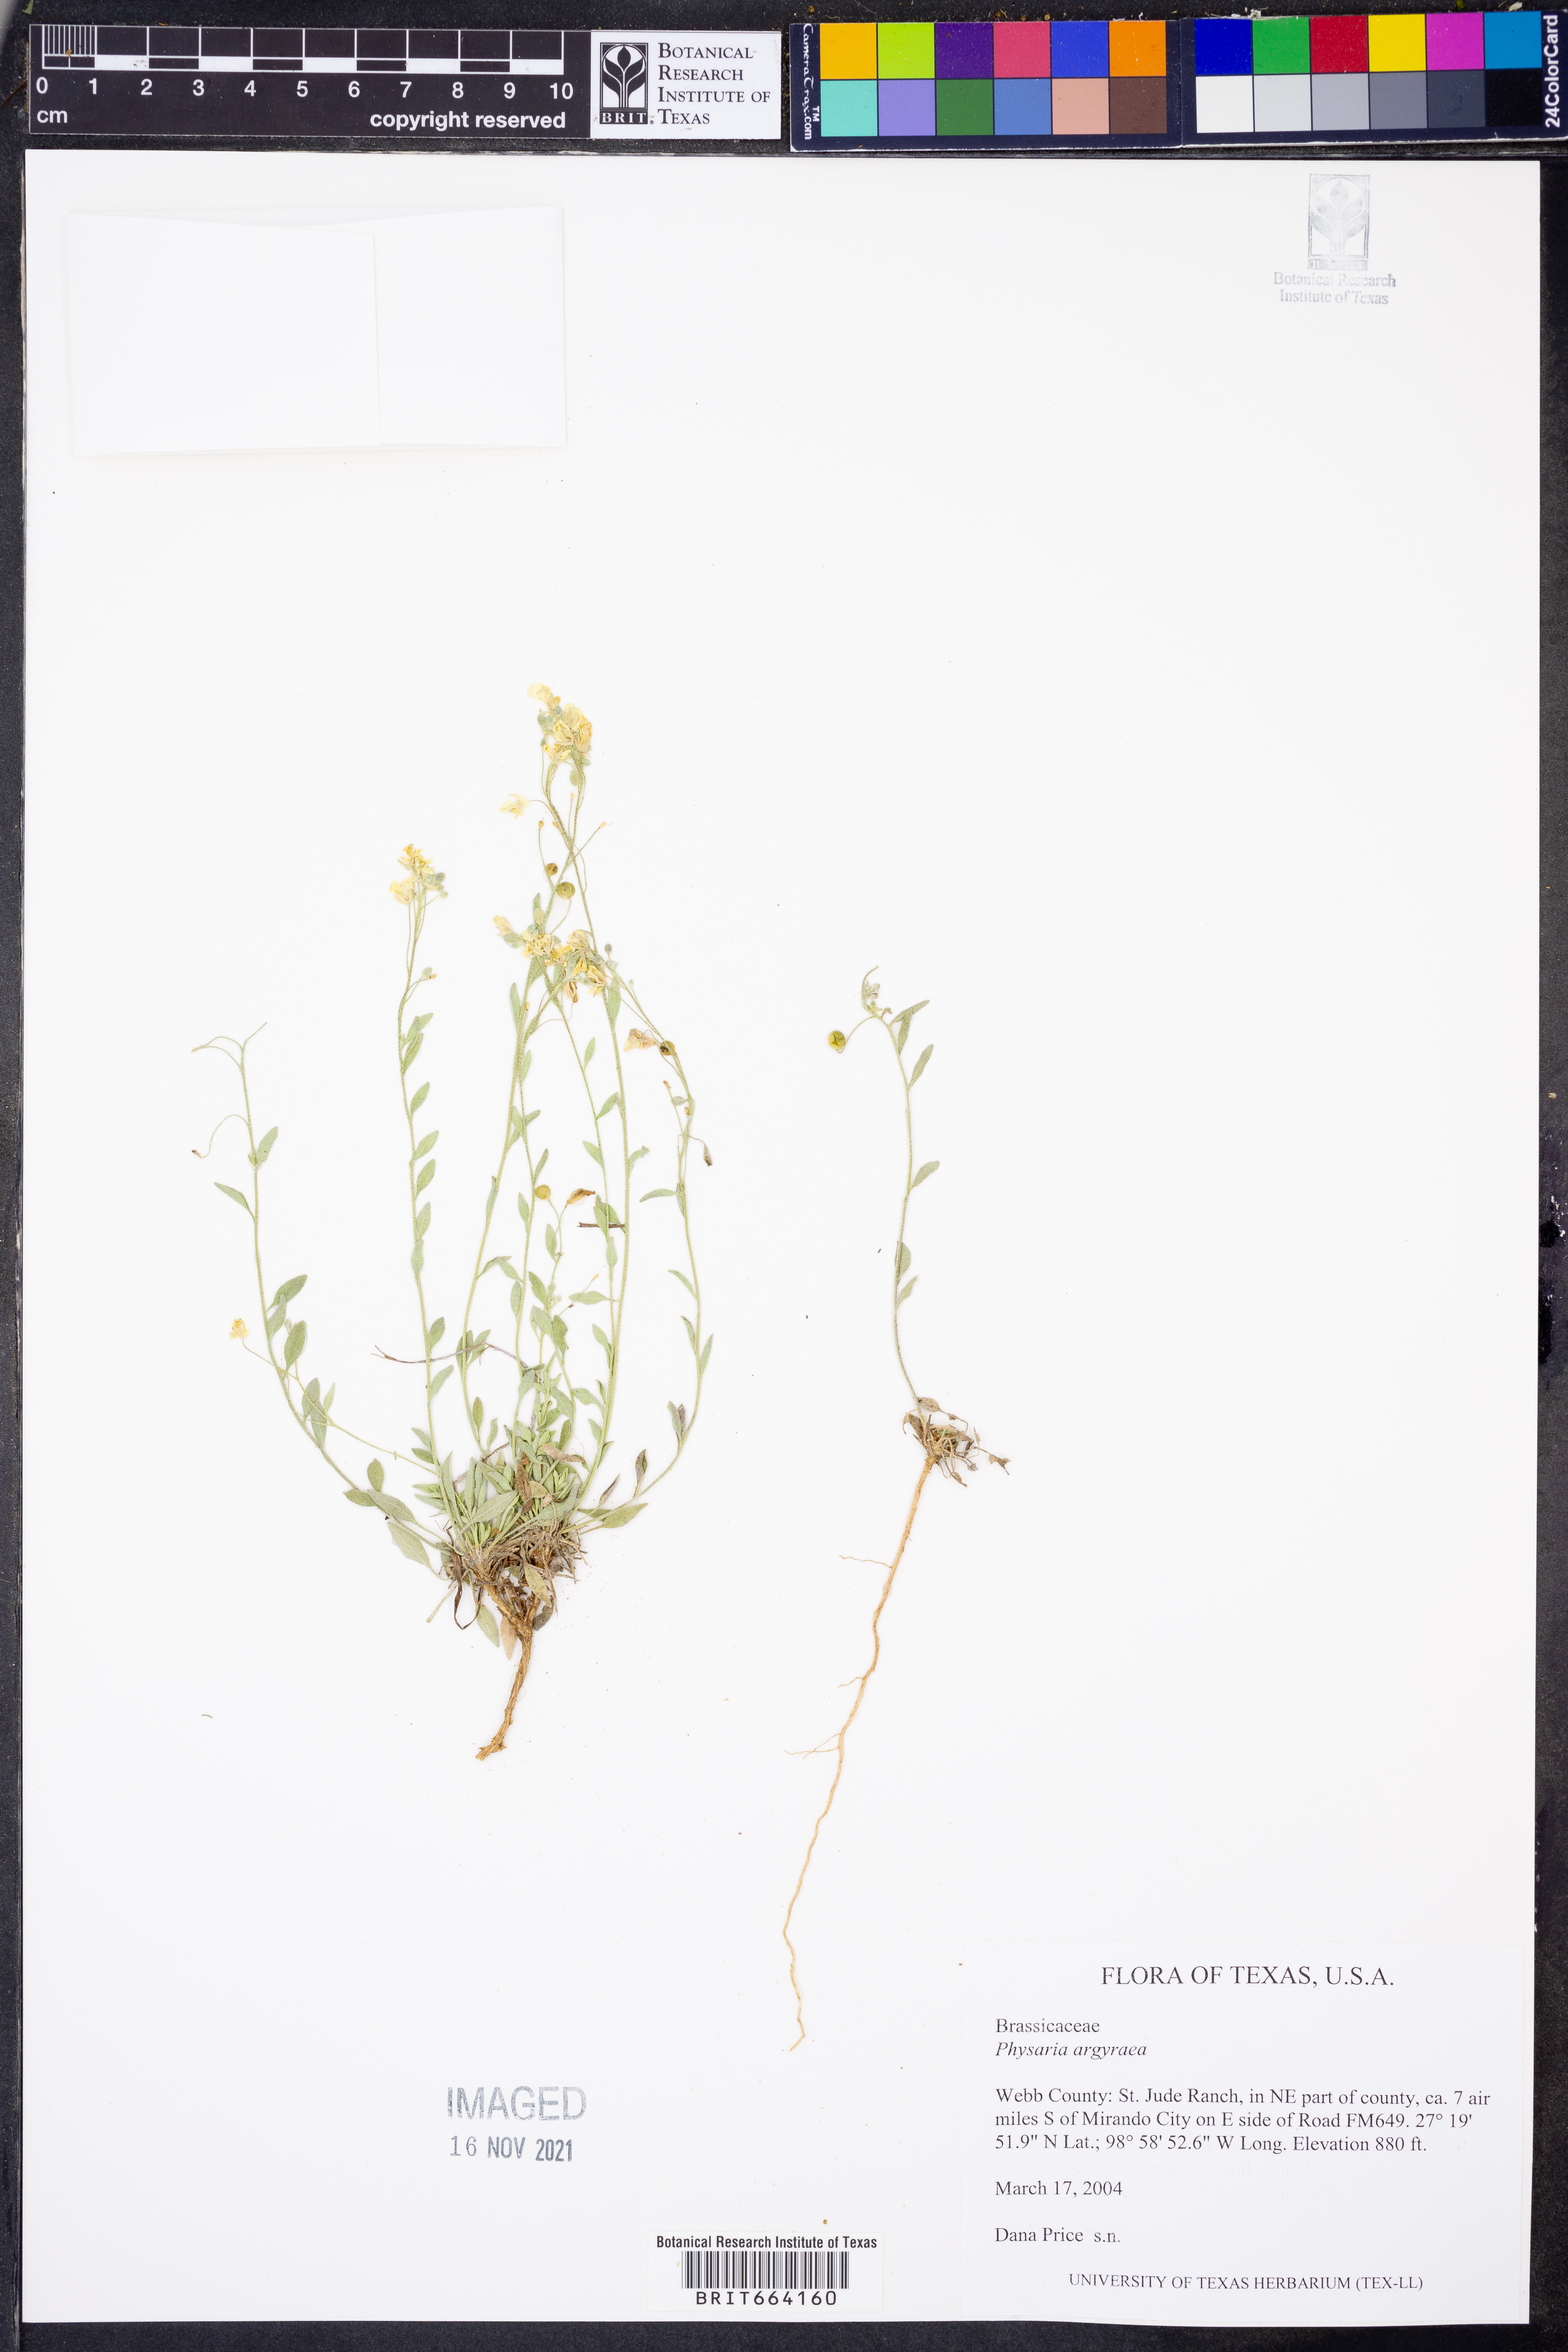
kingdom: Plantae
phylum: Tracheophyta
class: Magnoliopsida
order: Brassicales
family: Brassicaceae
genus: Physaria
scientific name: Physaria argyraea
